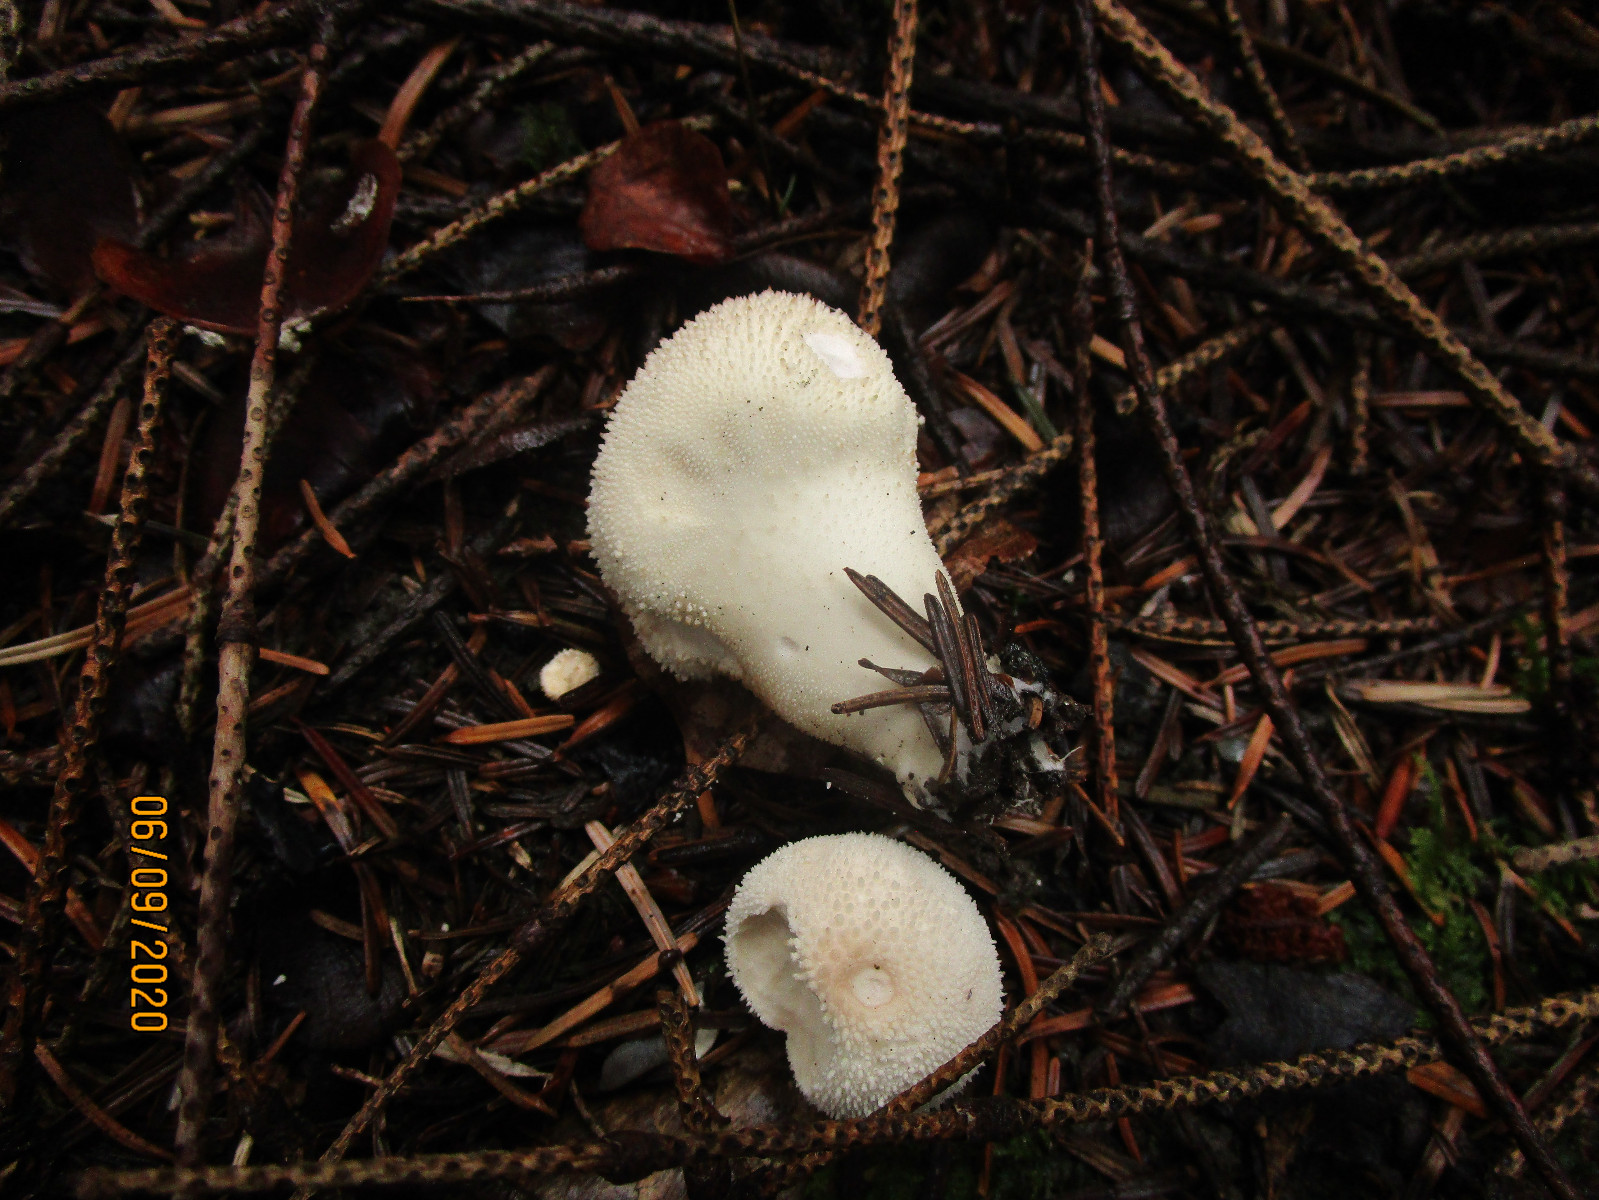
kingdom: Fungi
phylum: Basidiomycota
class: Agaricomycetes
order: Agaricales
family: Lycoperdaceae
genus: Apioperdon
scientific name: Apioperdon pyriforme
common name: pære-støvbold
